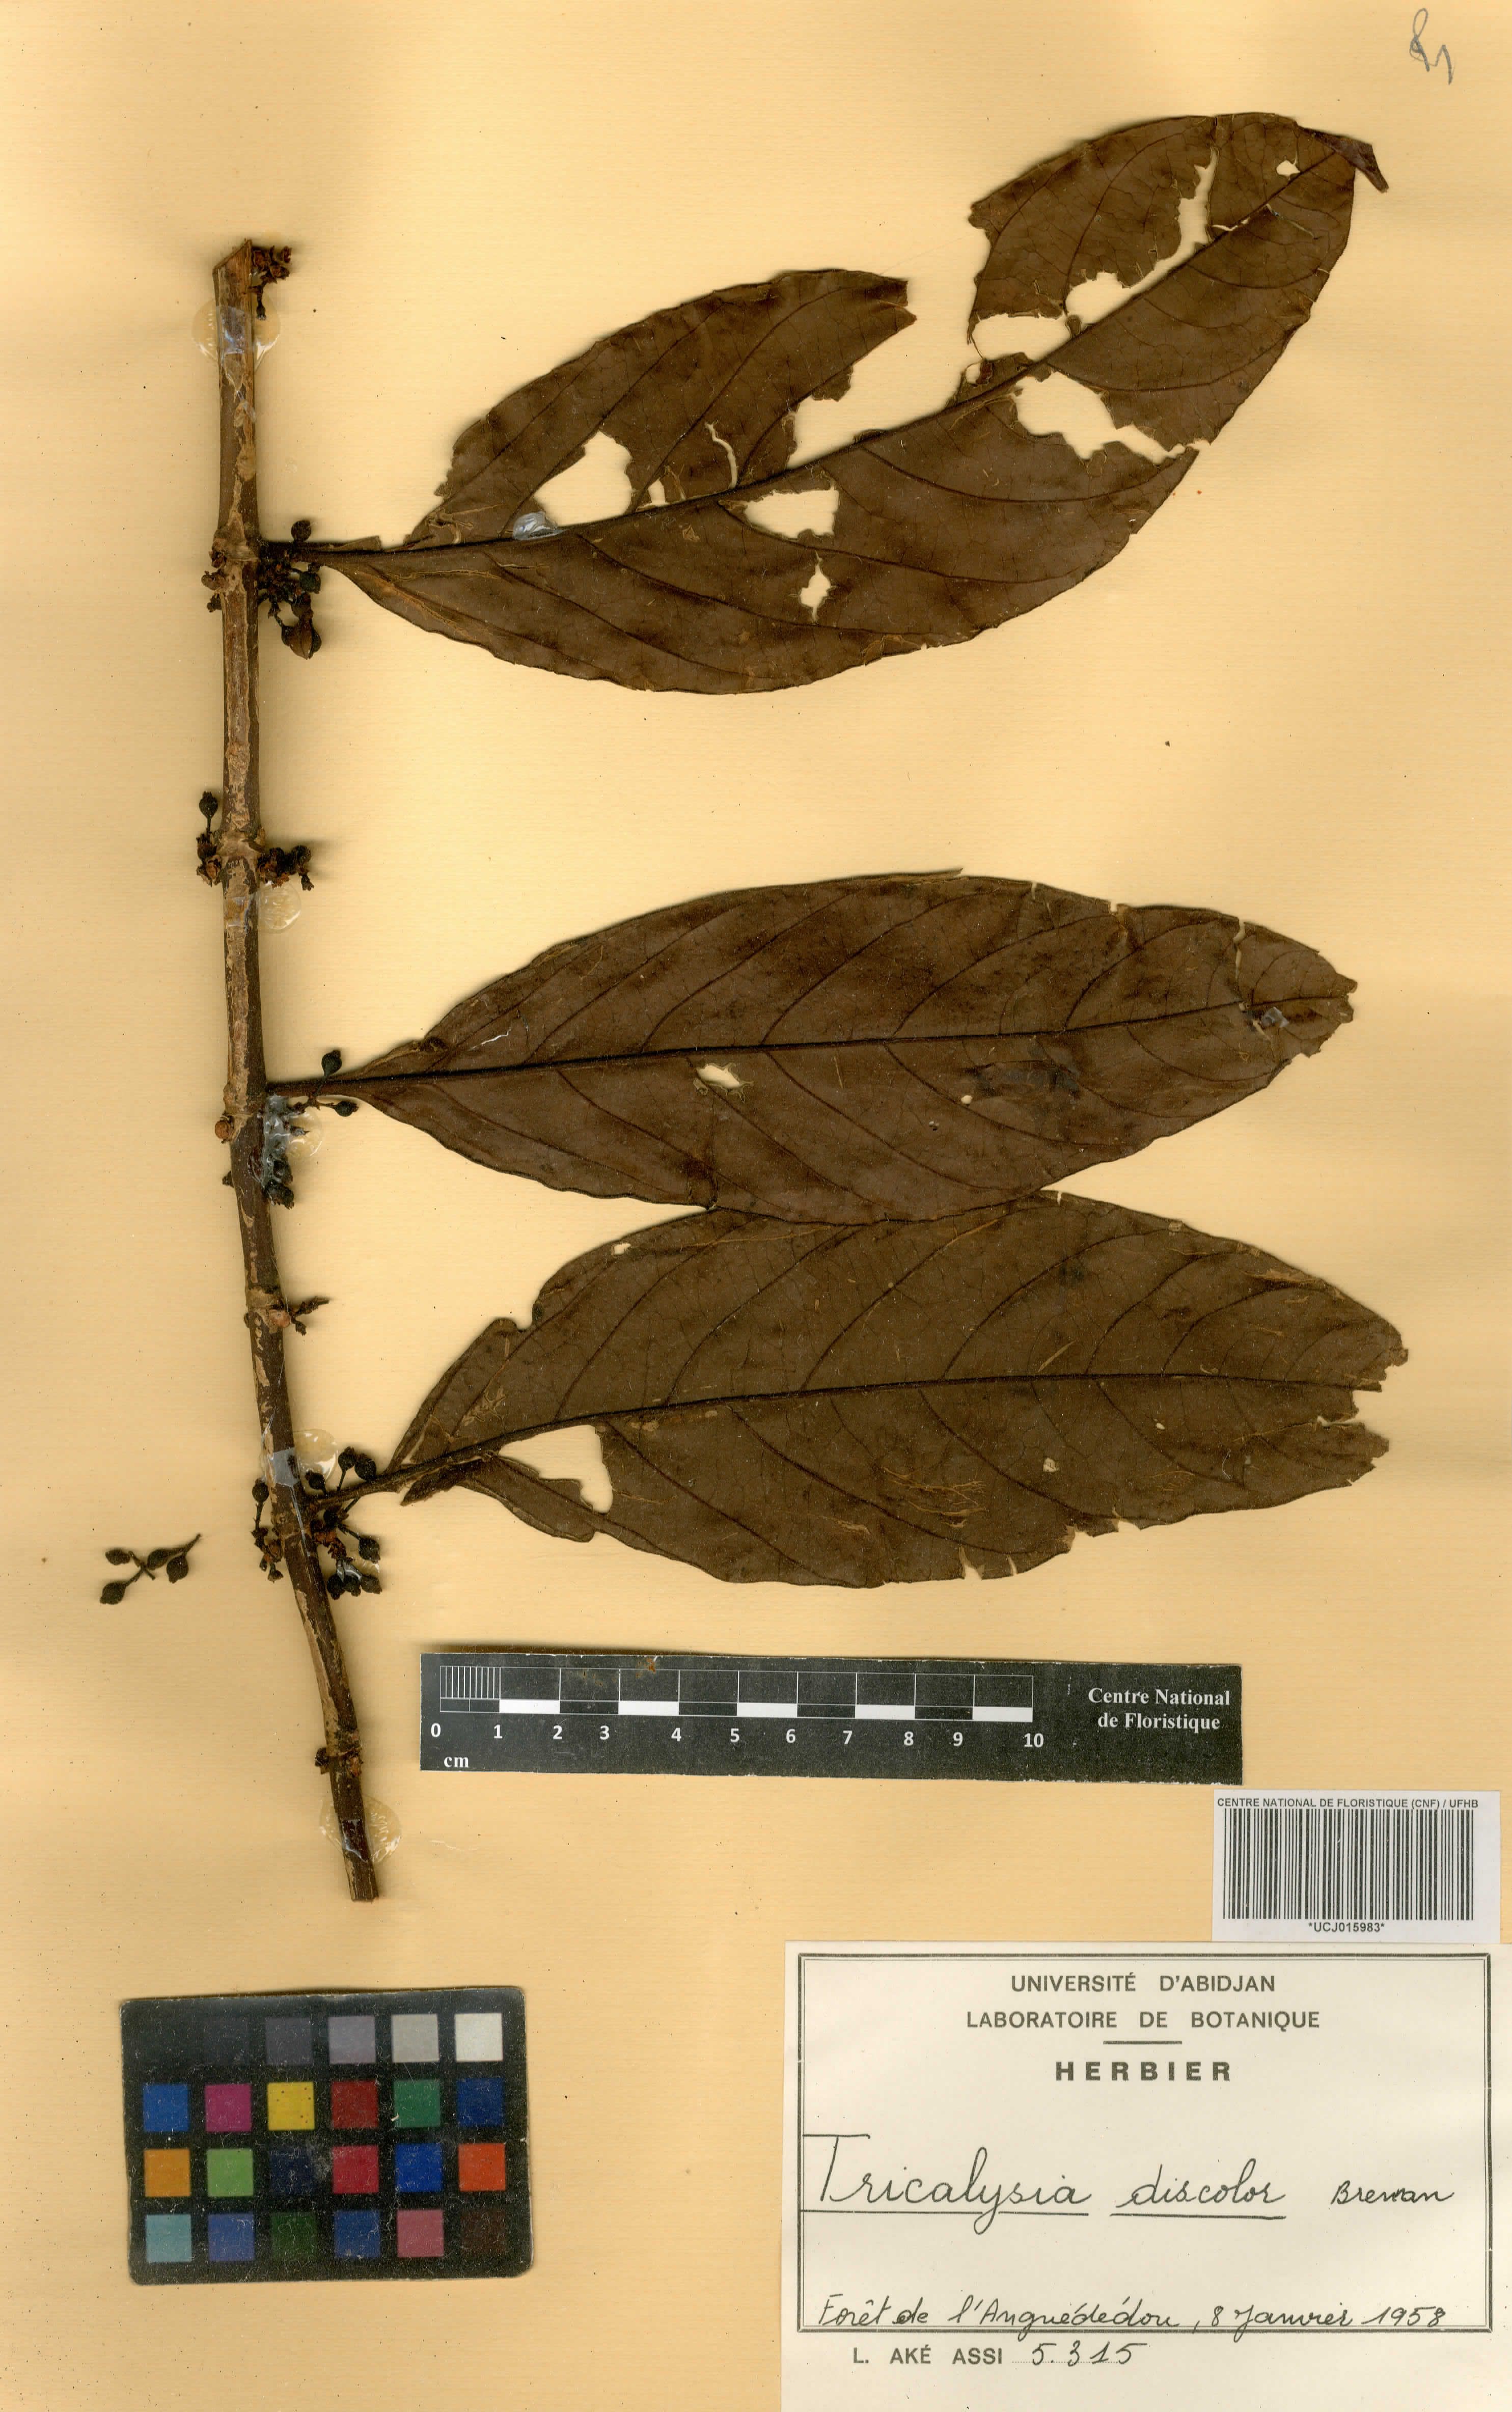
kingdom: Plantae
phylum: Tracheophyta
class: Magnoliopsida
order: Gentianales
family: Rubiaceae
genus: Empogona
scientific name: Empogona discolor
